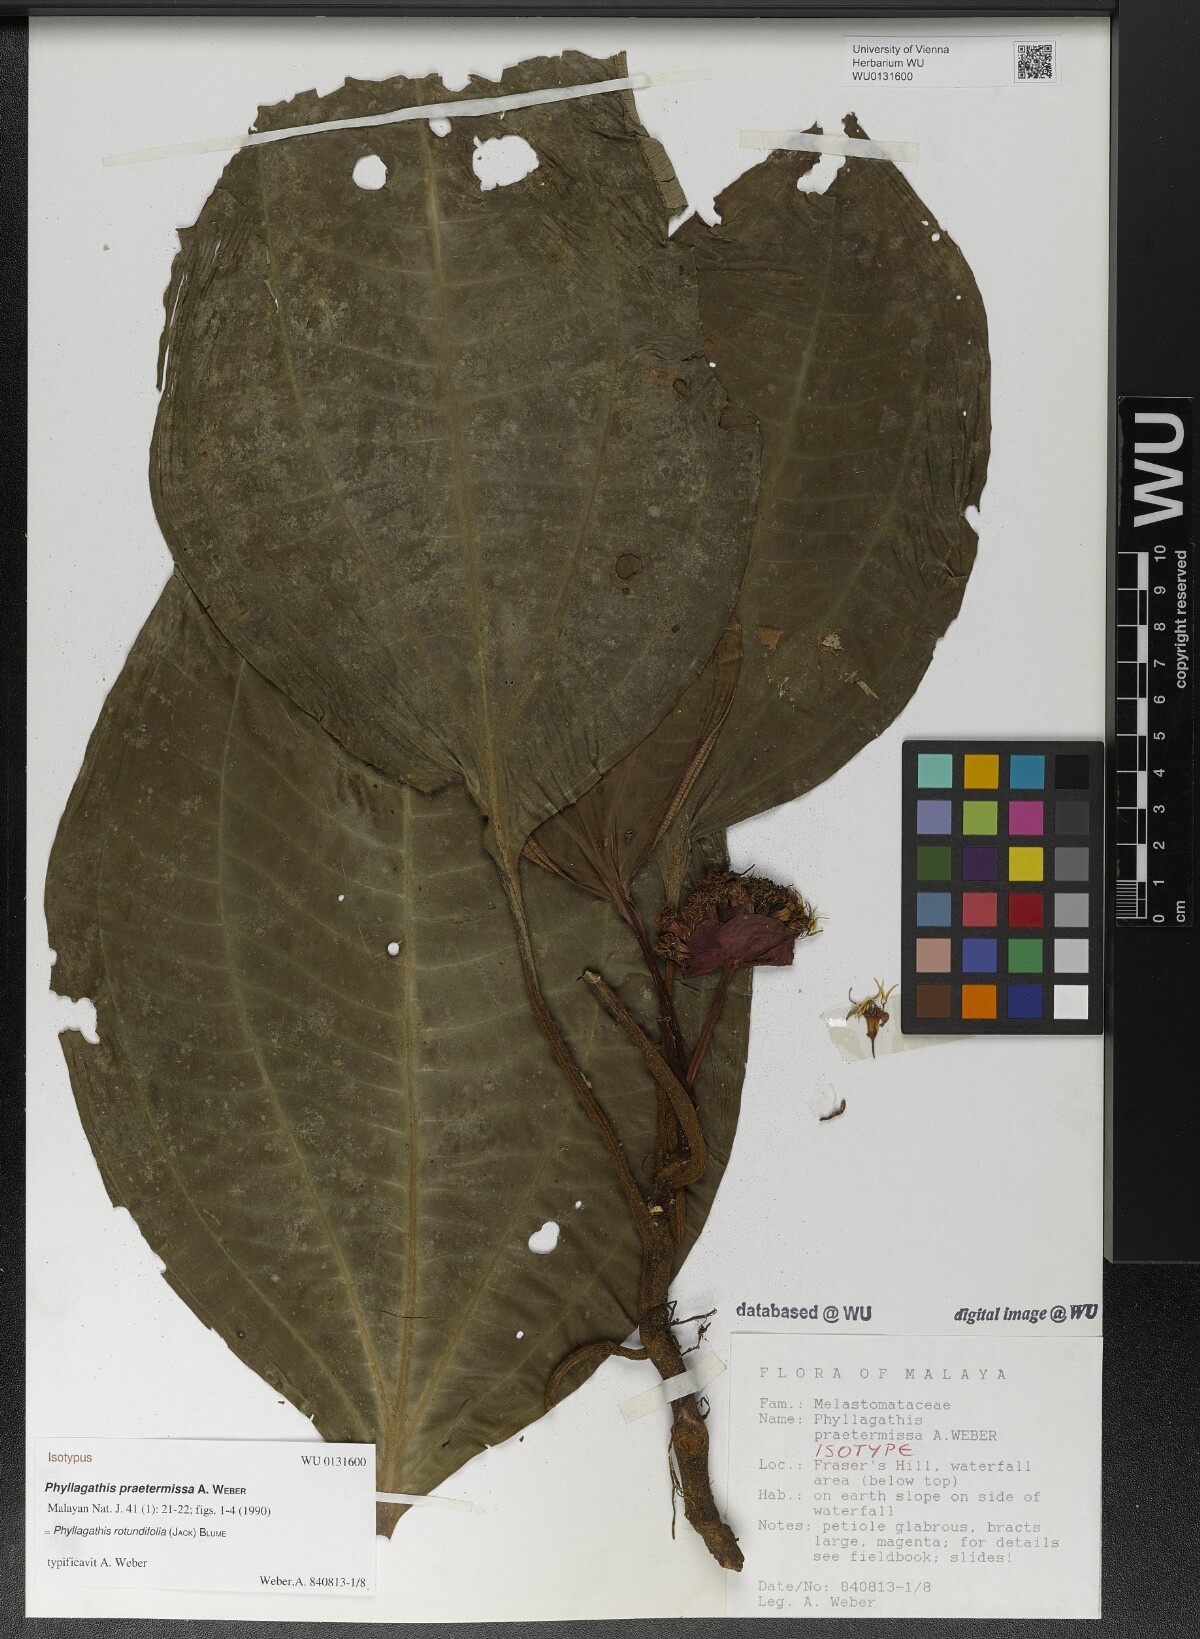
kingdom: Plantae
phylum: Tracheophyta
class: Magnoliopsida
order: Myrtales
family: Melastomataceae
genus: Phyllagathis
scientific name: Phyllagathis rotundifolia
